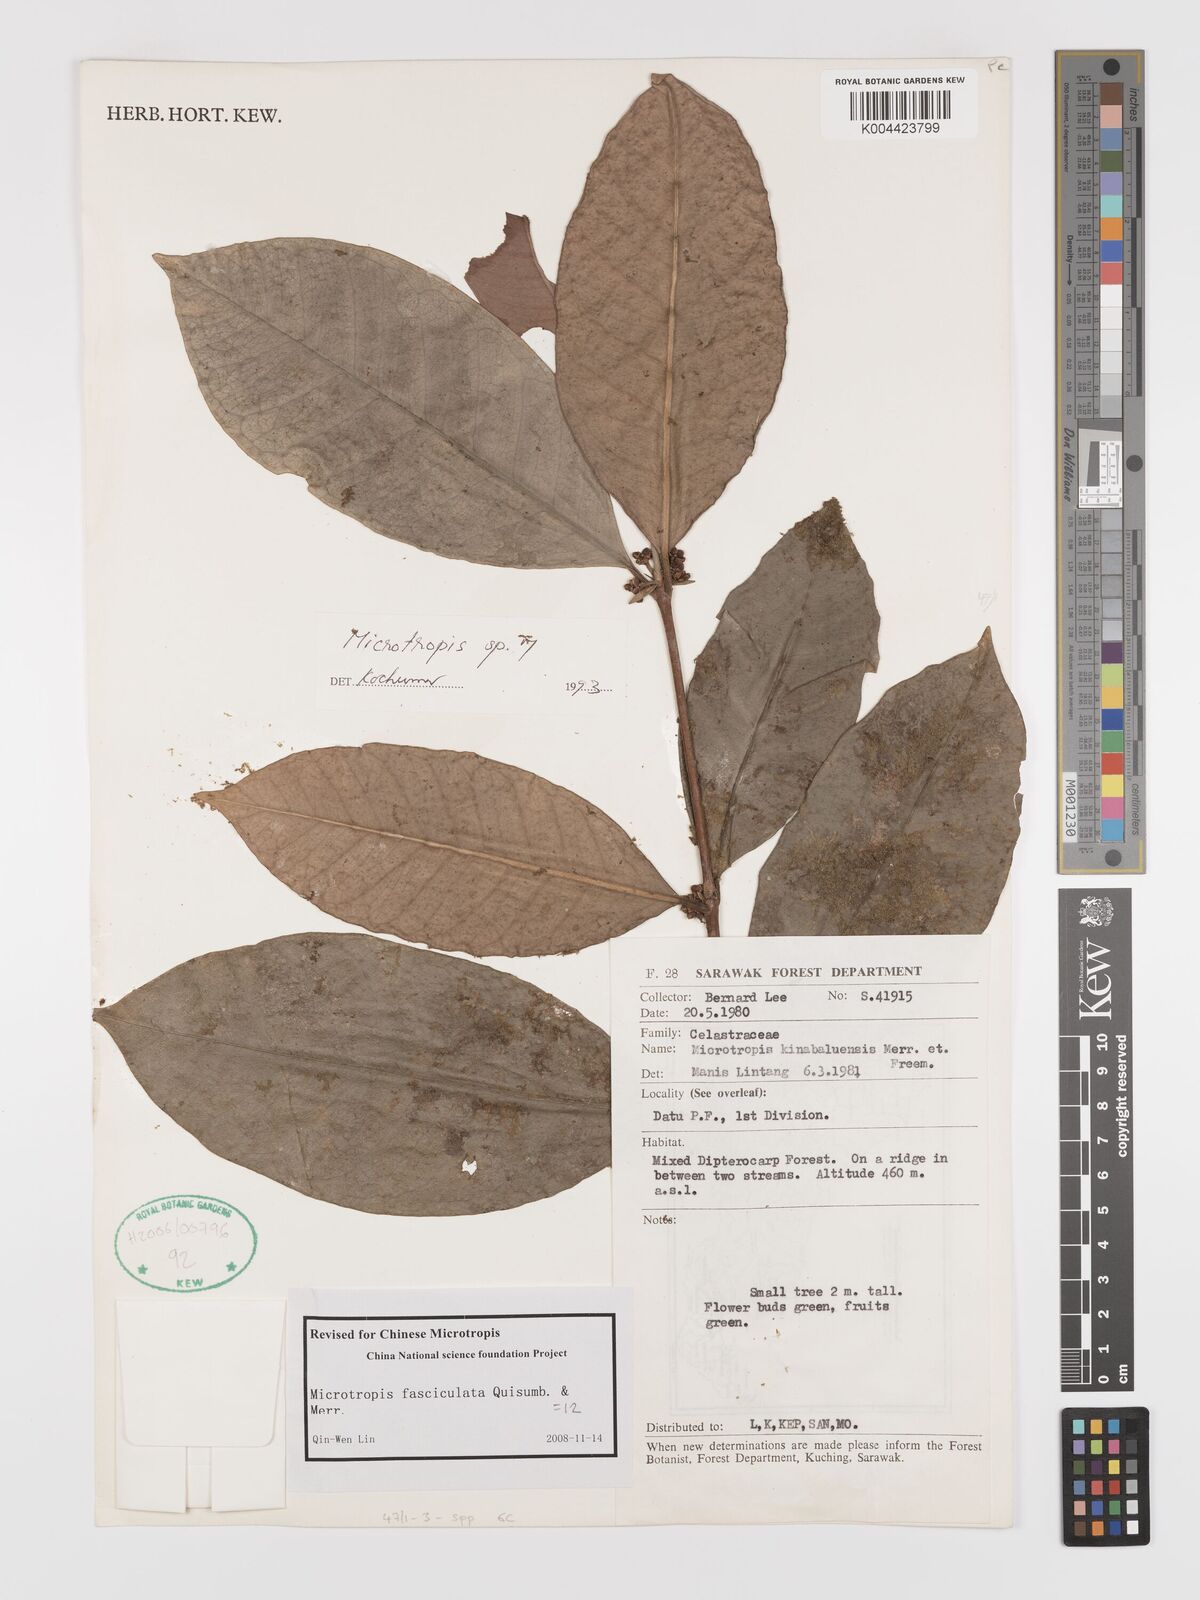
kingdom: Plantae
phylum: Tracheophyta
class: Magnoliopsida
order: Celastrales
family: Celastraceae
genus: Microtropis
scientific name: Microtropis platyphylla
